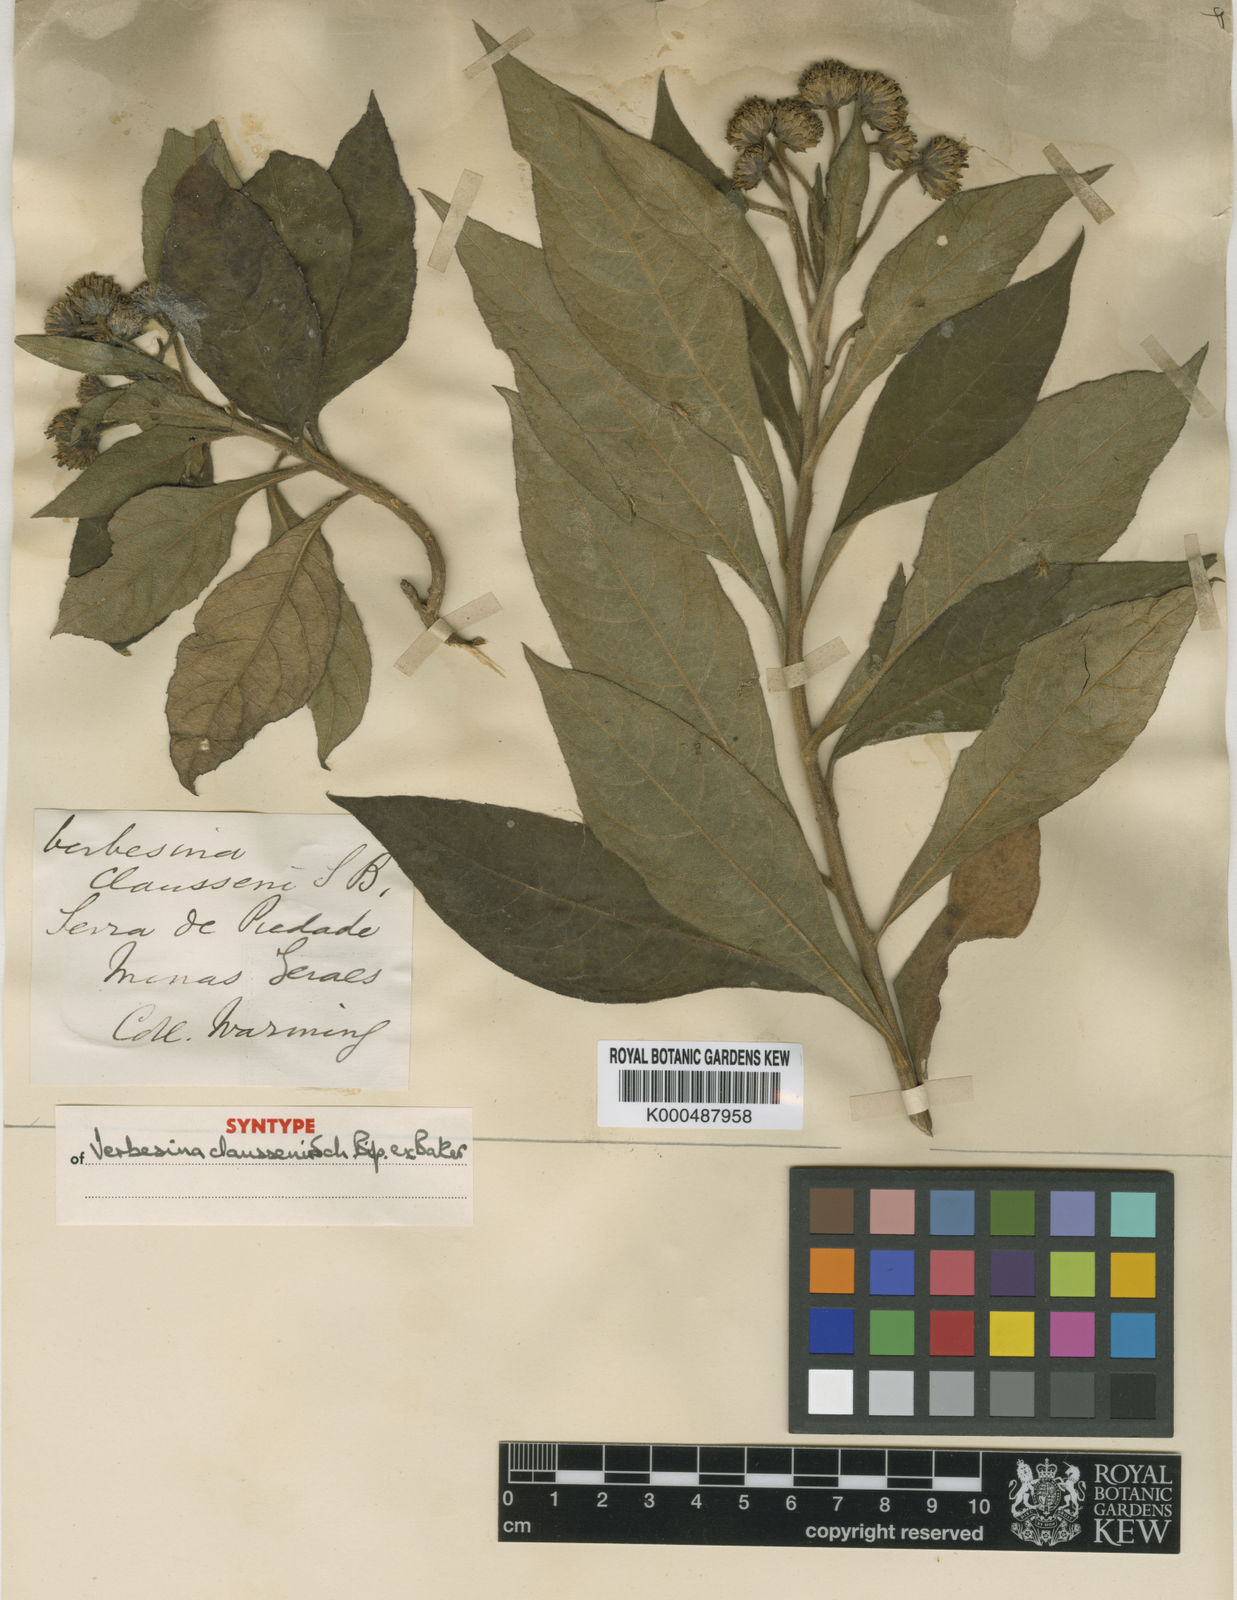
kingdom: Plantae
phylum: Tracheophyta
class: Magnoliopsida
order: Asterales
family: Asteraceae
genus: Verbesina
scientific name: Verbesina claussenii
